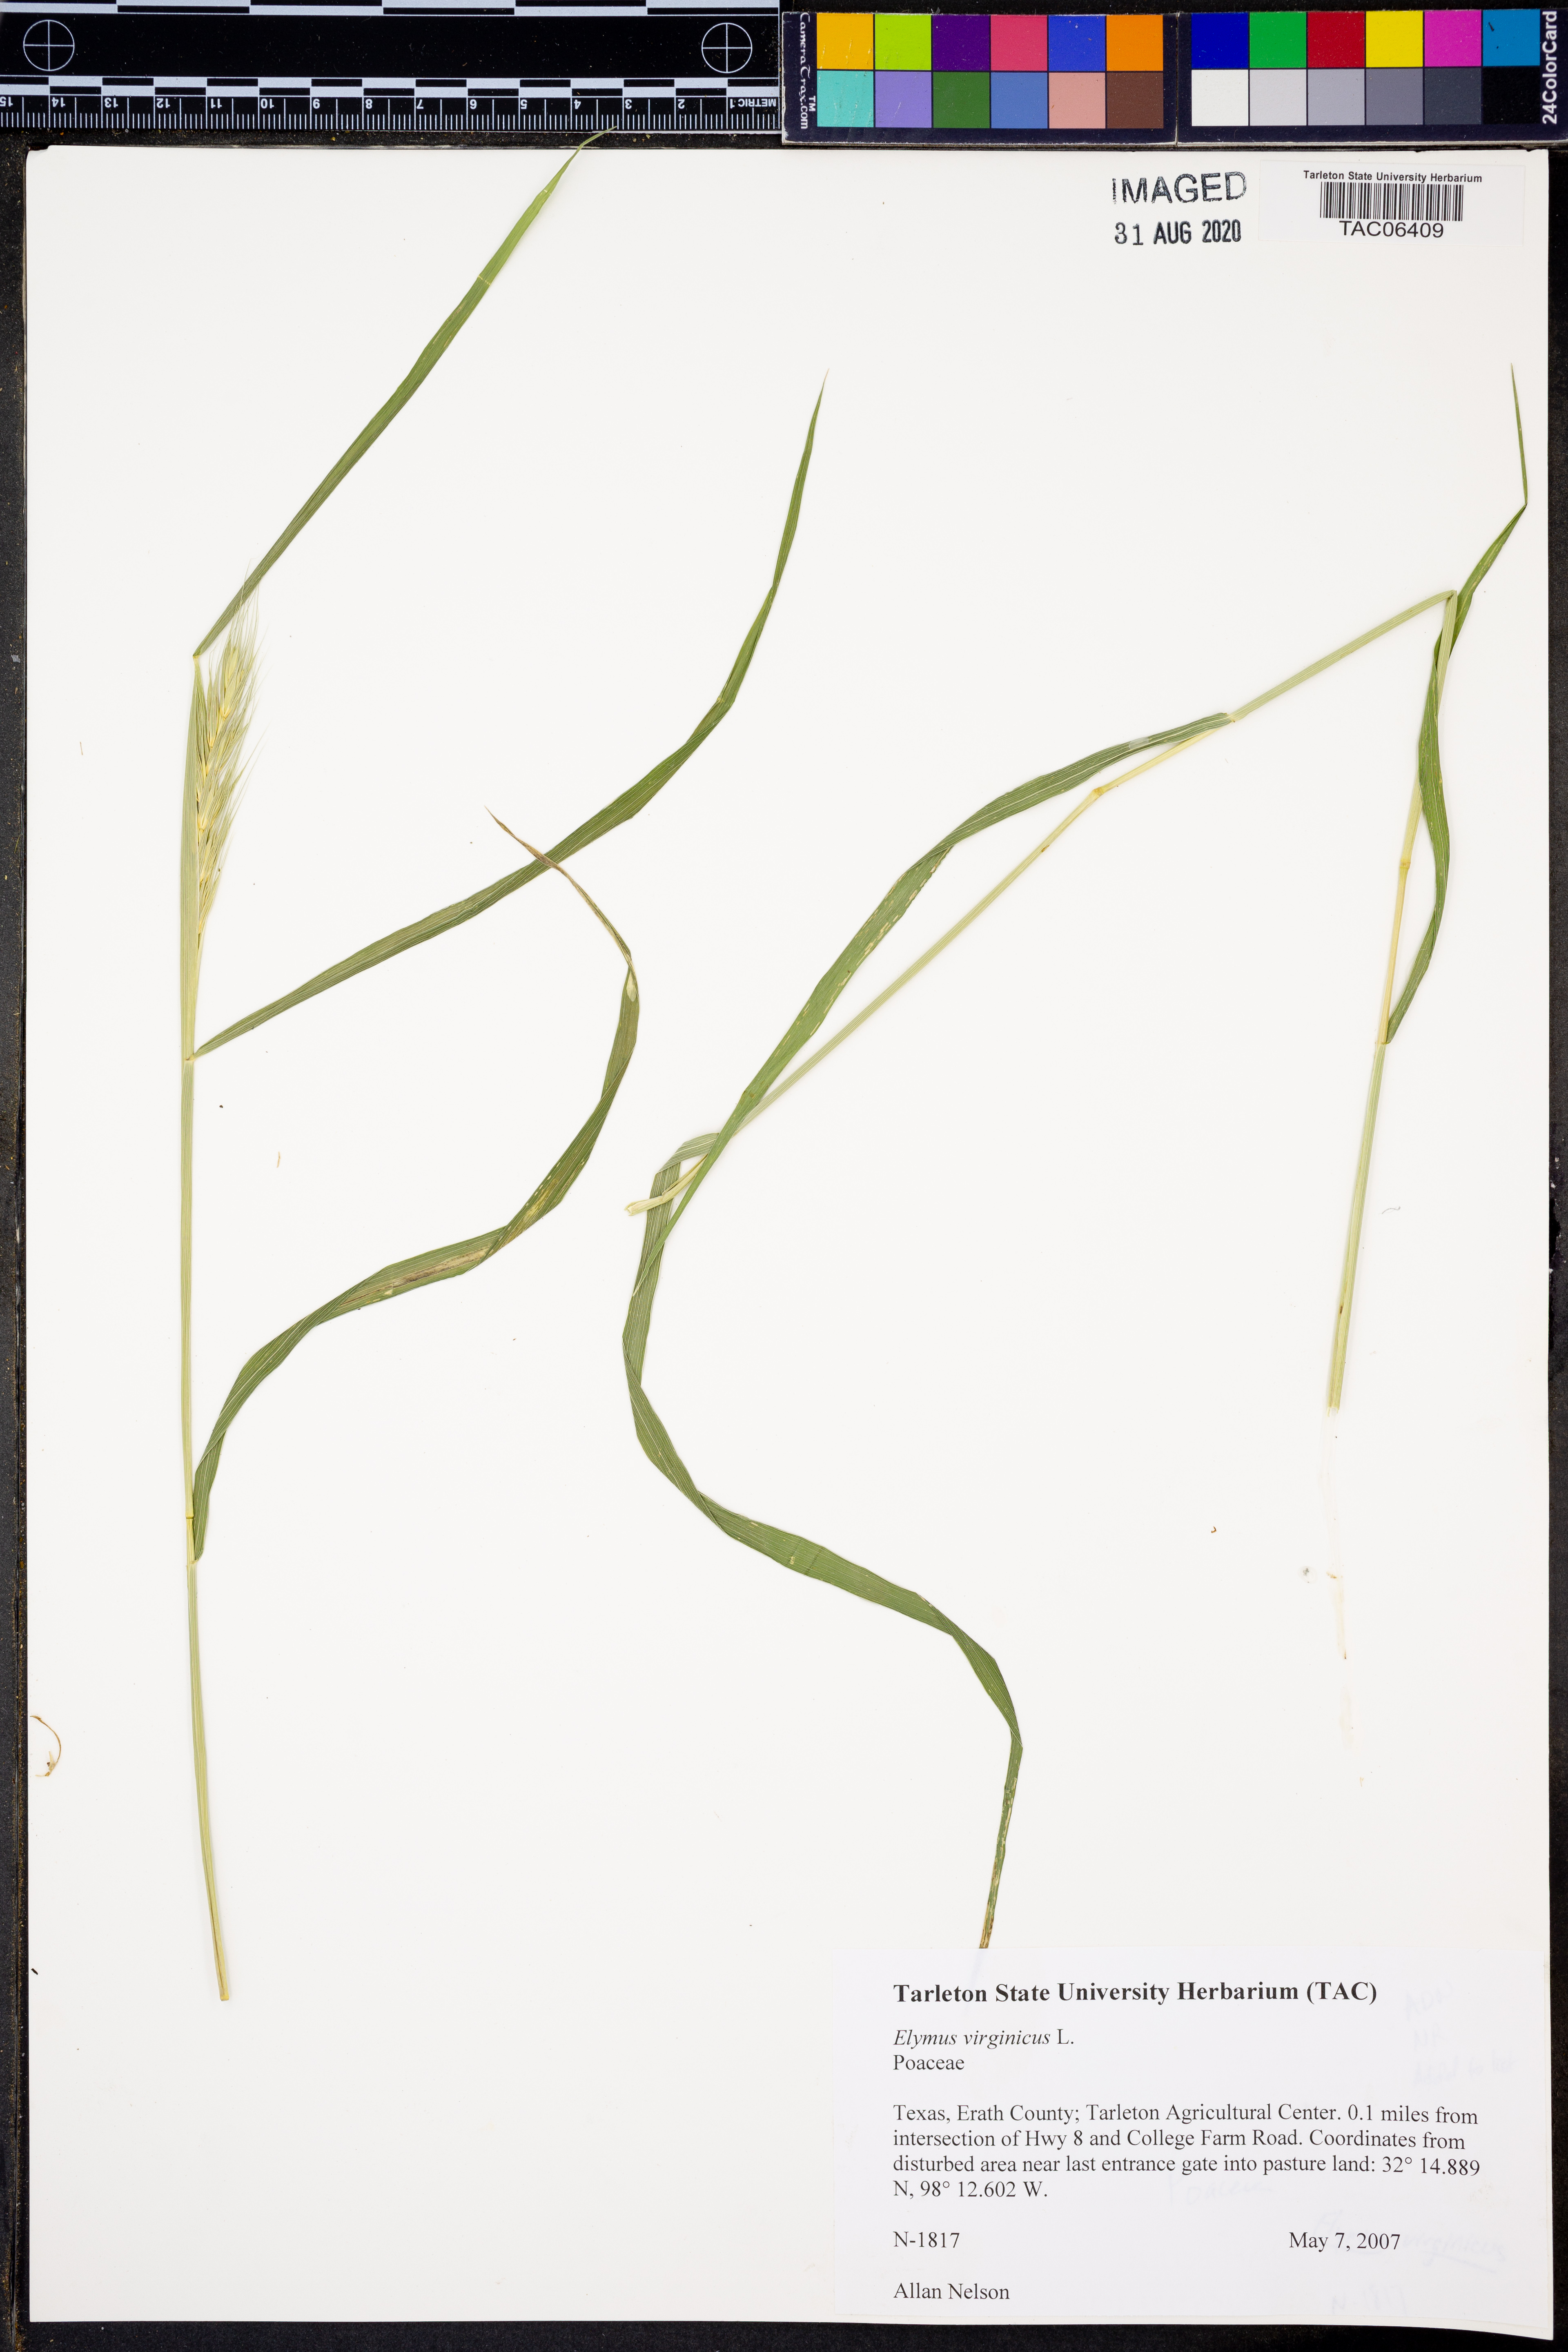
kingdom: Plantae
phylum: Tracheophyta
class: Liliopsida
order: Poales
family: Poaceae
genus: Elymus
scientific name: Elymus virginicus
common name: Common eastern wildrye
